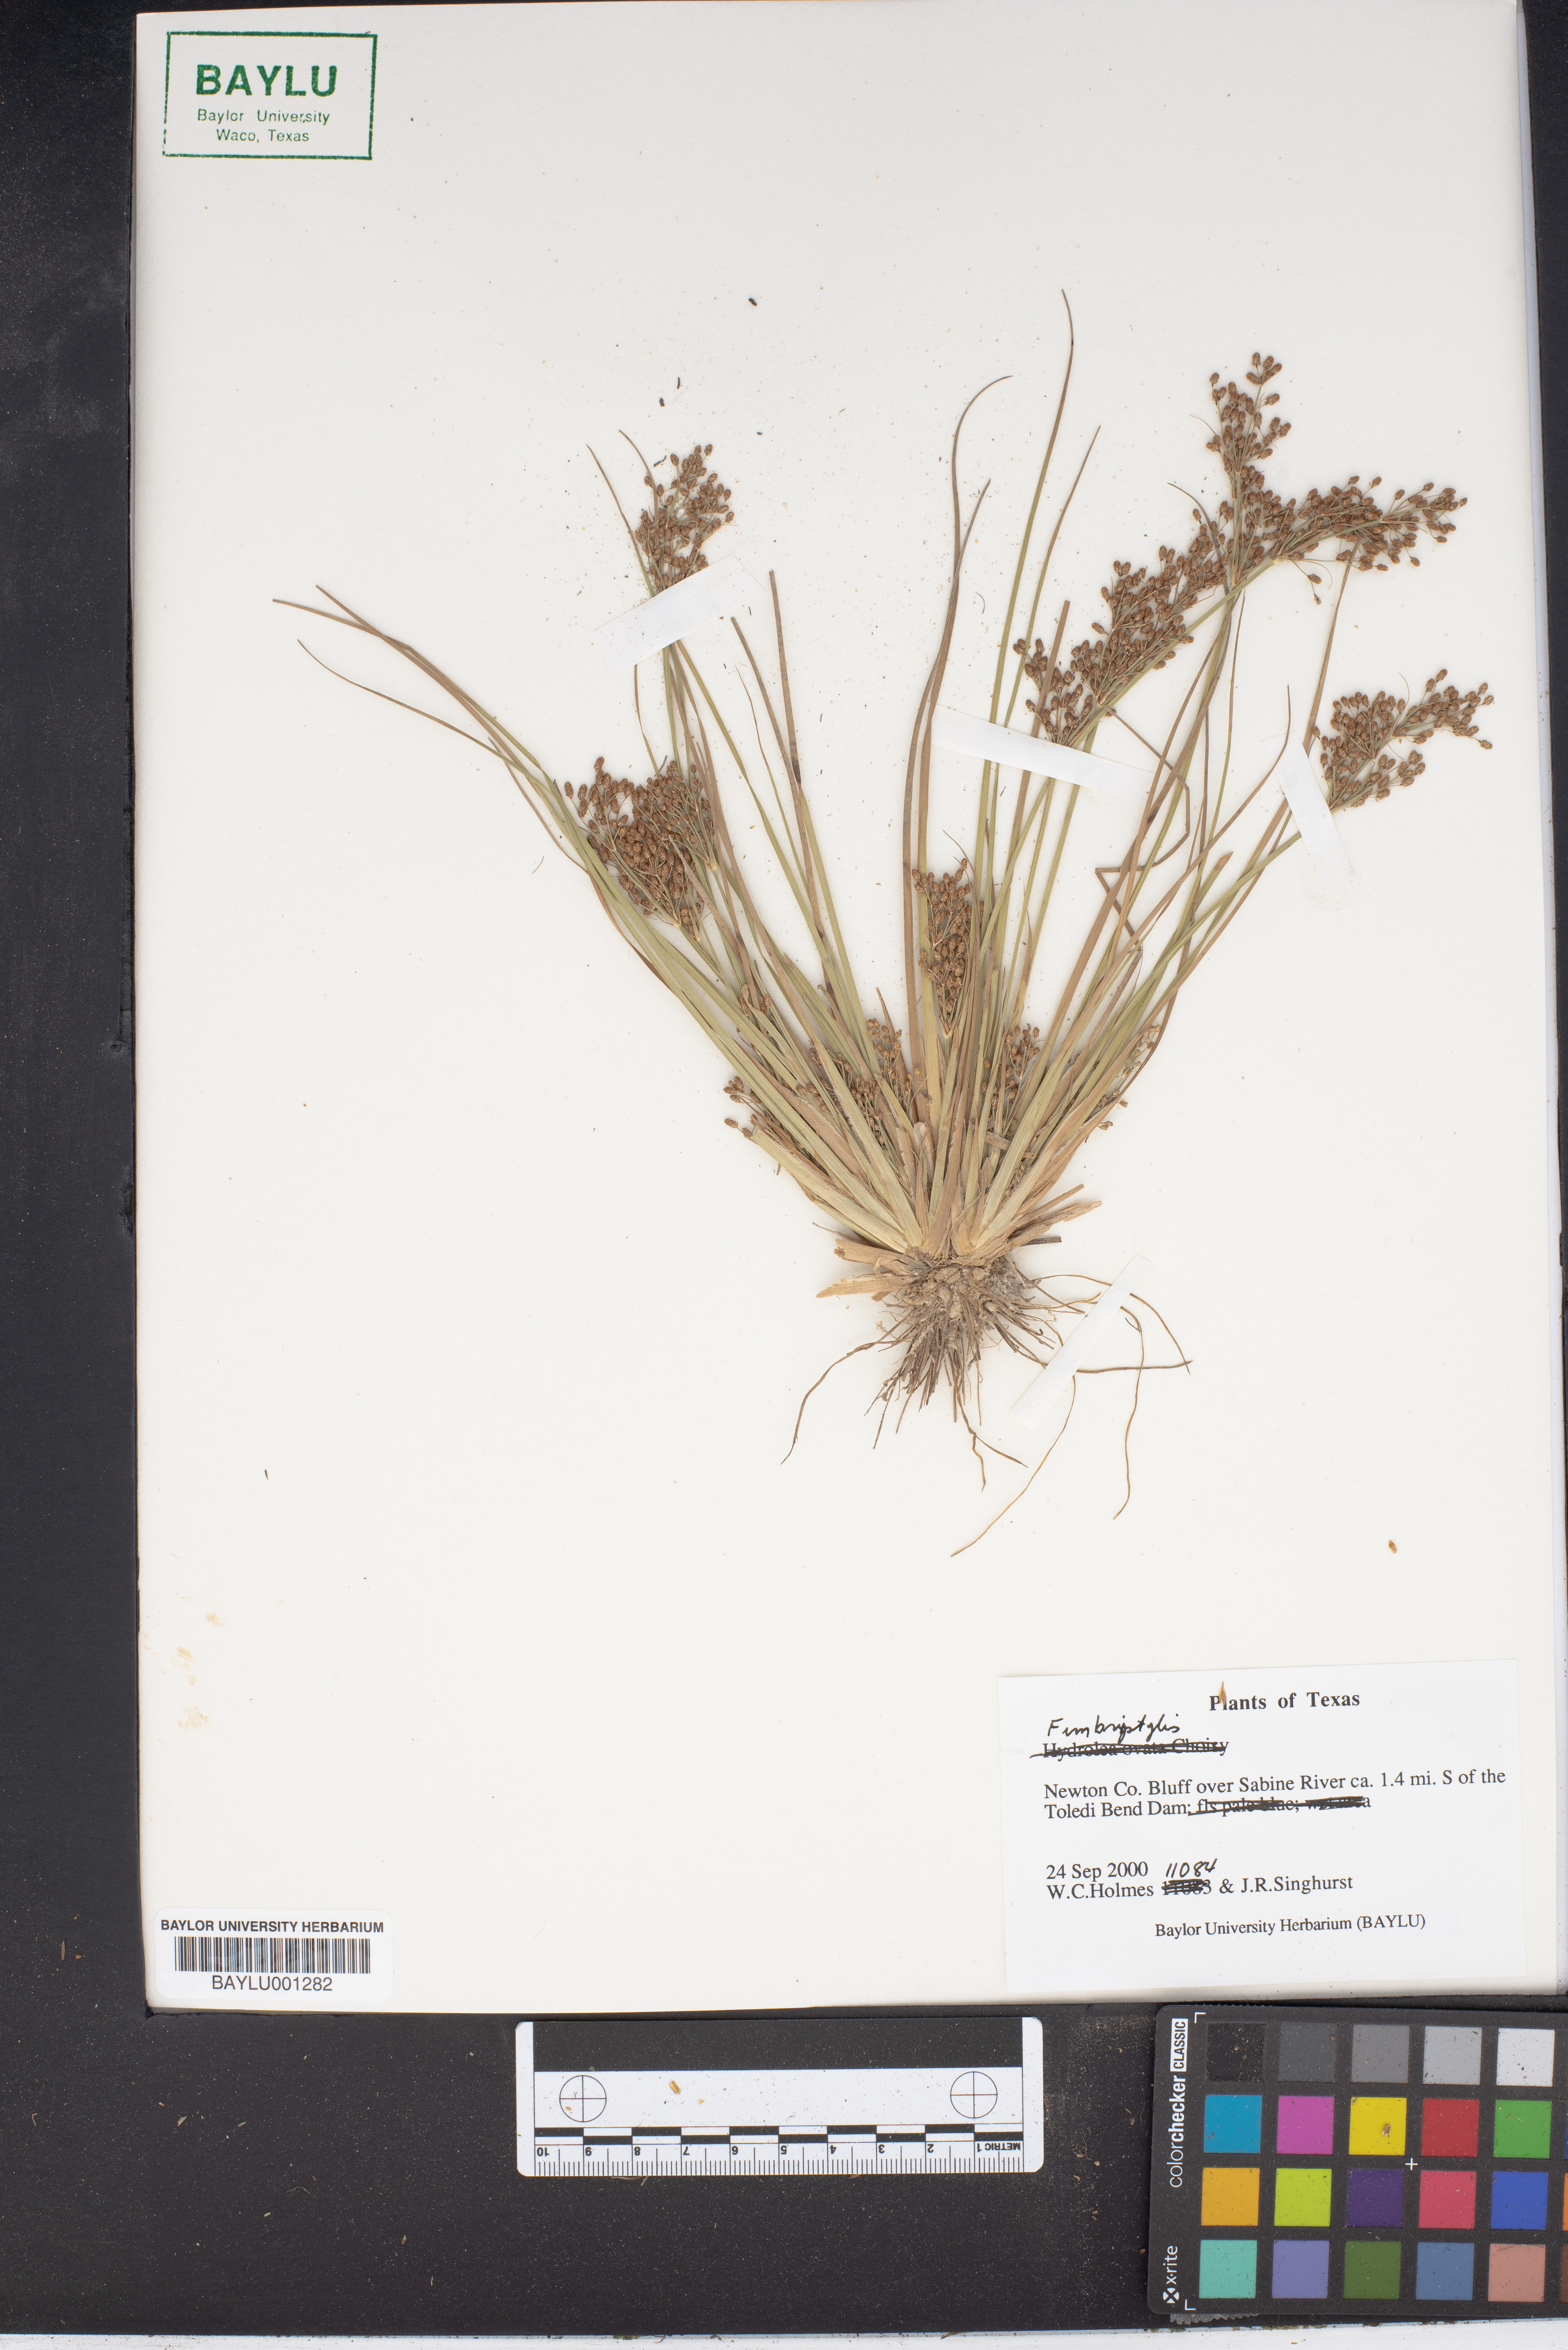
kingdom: Plantae
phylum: Tracheophyta
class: Liliopsida
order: Poales
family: Cyperaceae
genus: Fimbristylis
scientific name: Fimbristylis
